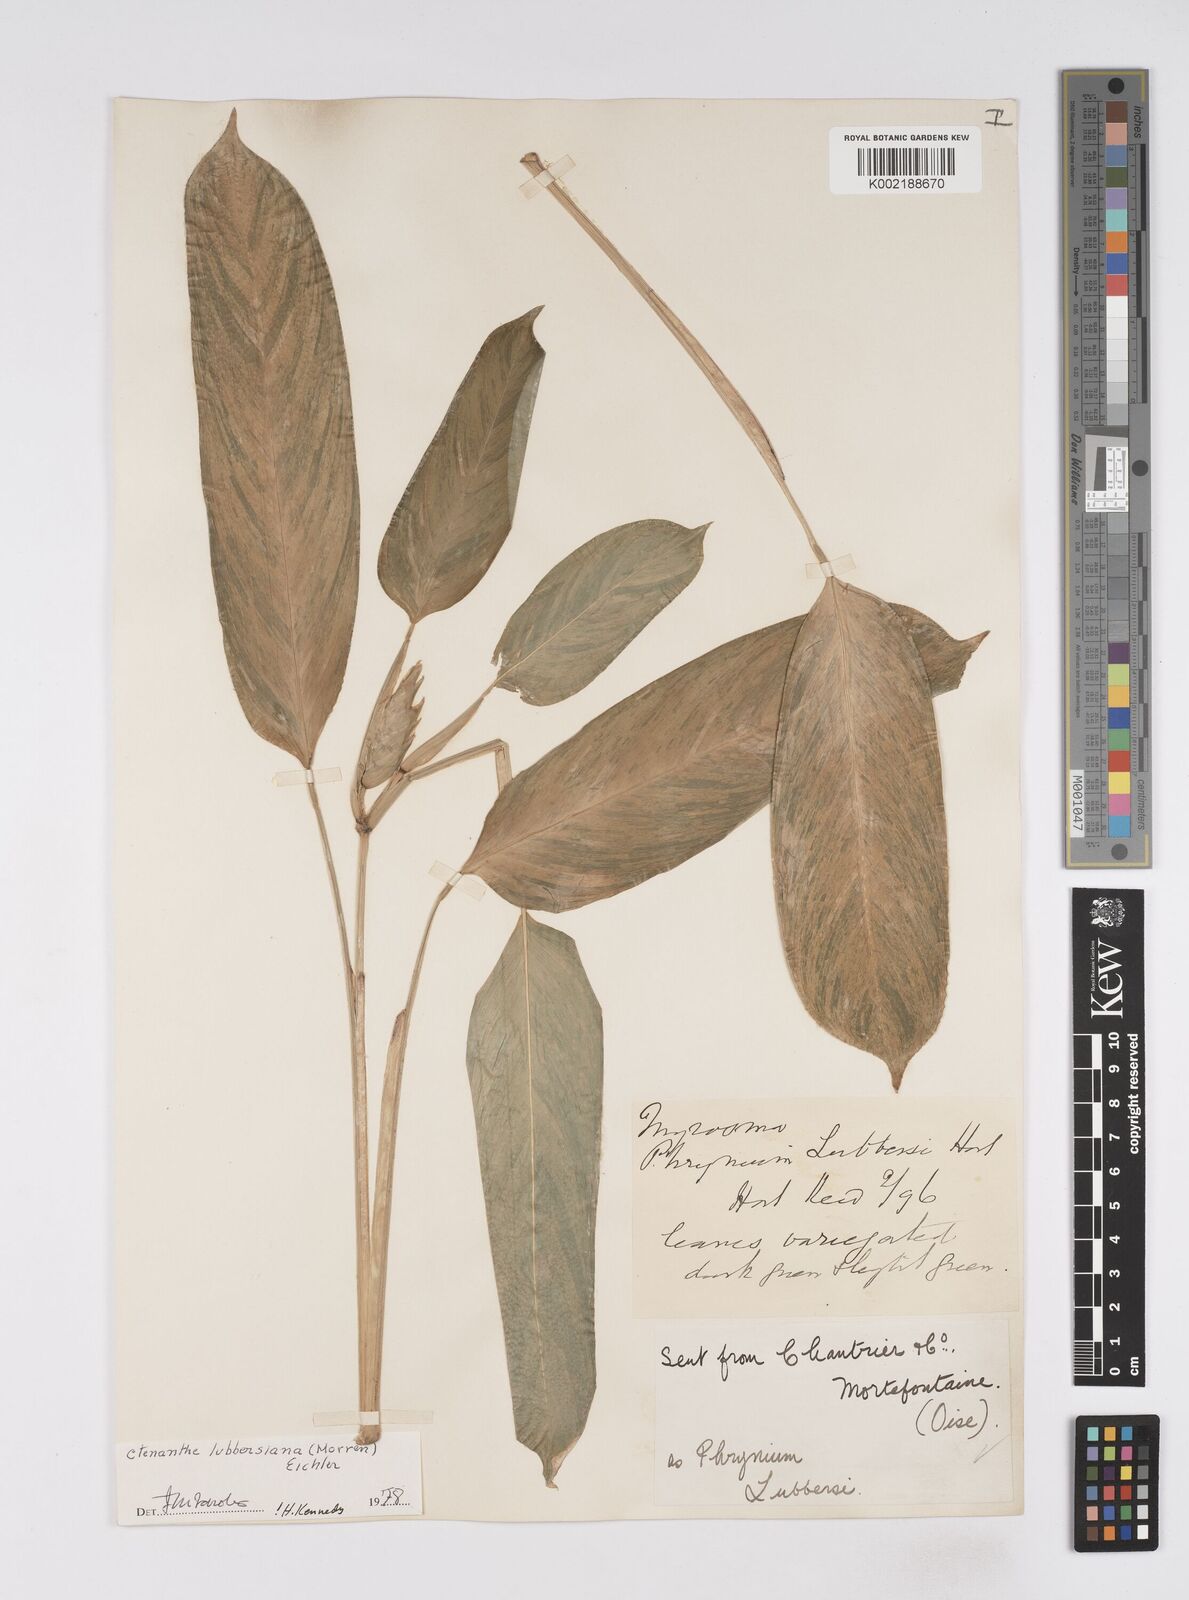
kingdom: Plantae
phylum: Tracheophyta
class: Liliopsida
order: Zingiberales
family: Marantaceae
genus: Ctenanthe
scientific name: Ctenanthe lubbersiana
